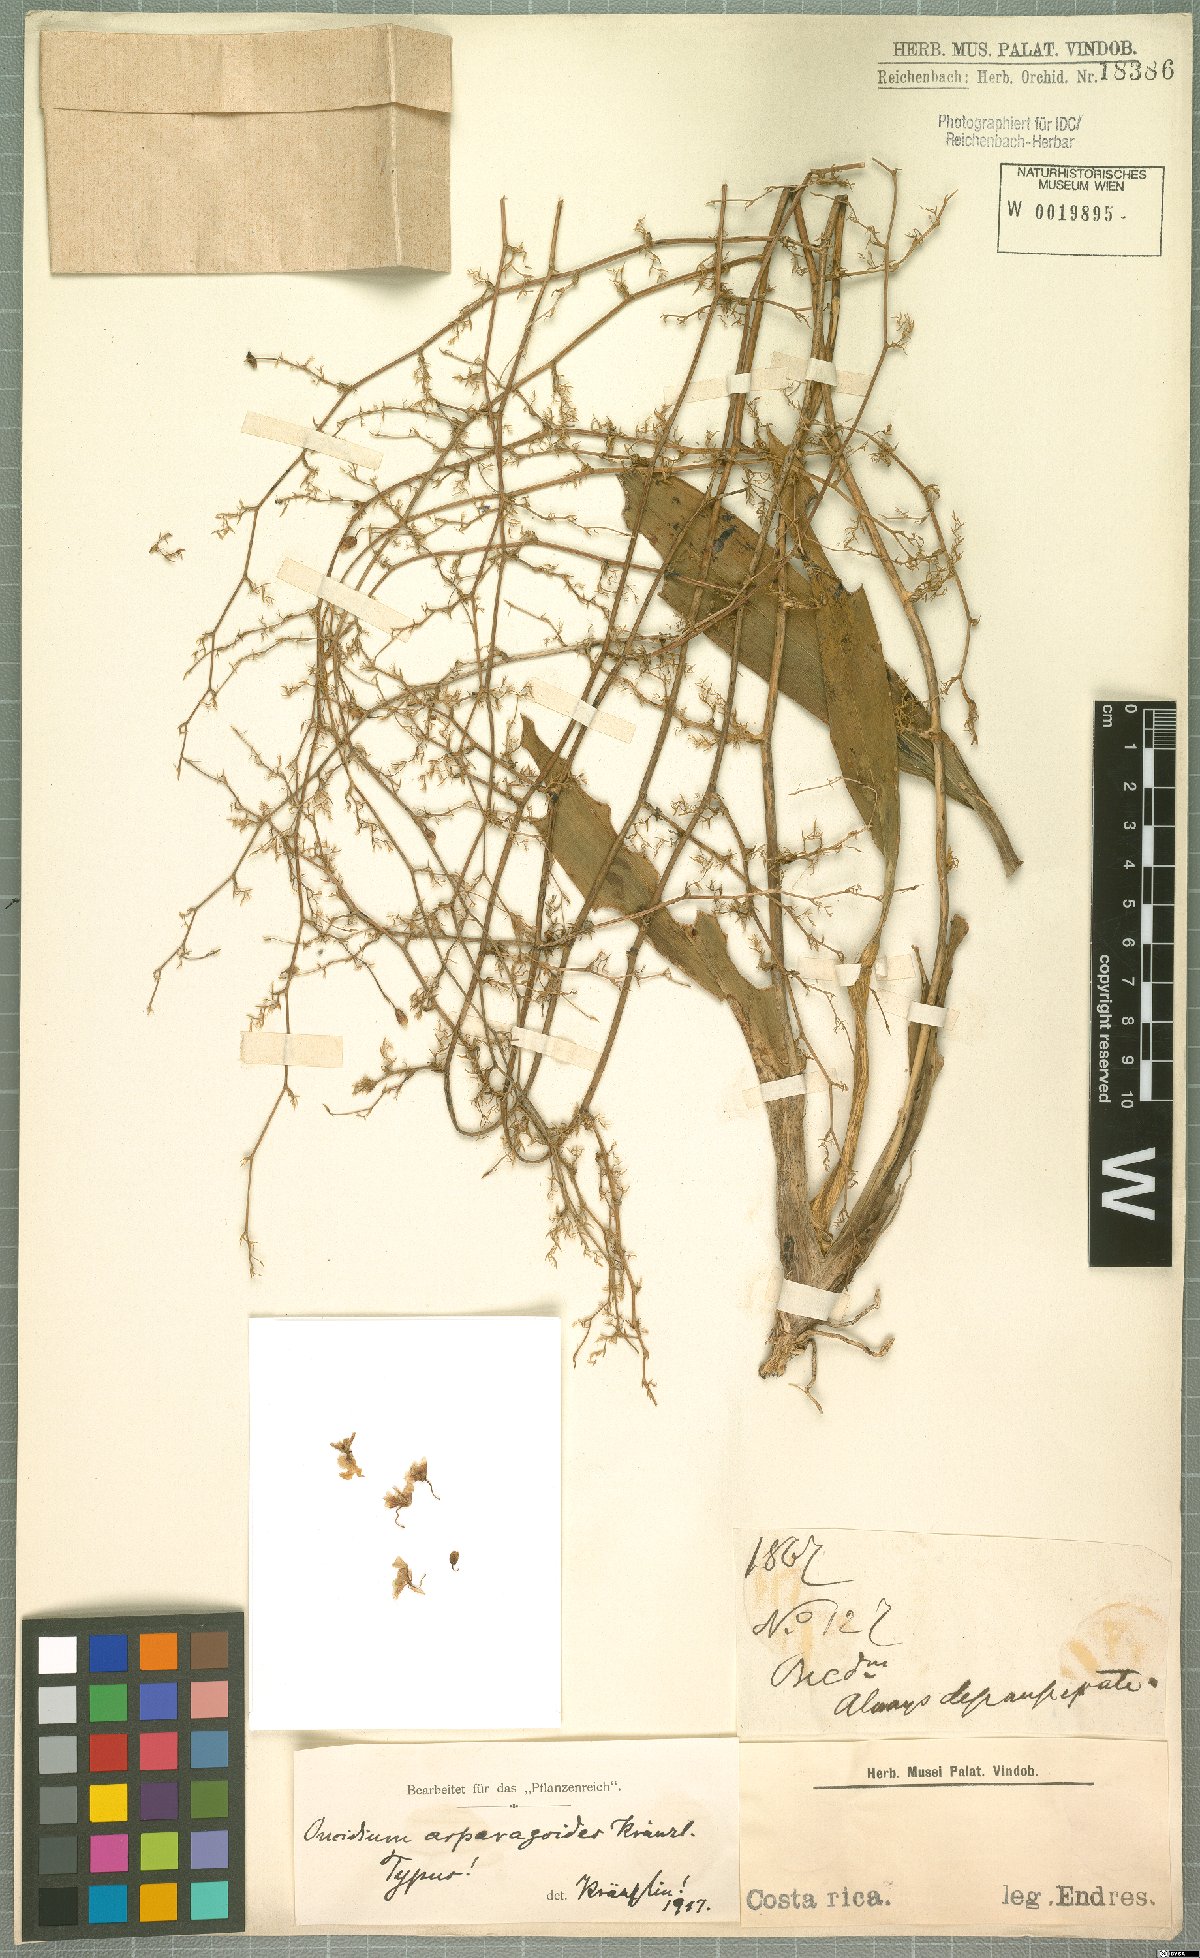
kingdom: Plantae
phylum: Tracheophyta
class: Liliopsida
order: Asparagales
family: Orchidaceae
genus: Oncidium
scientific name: Oncidium bryolophotum
